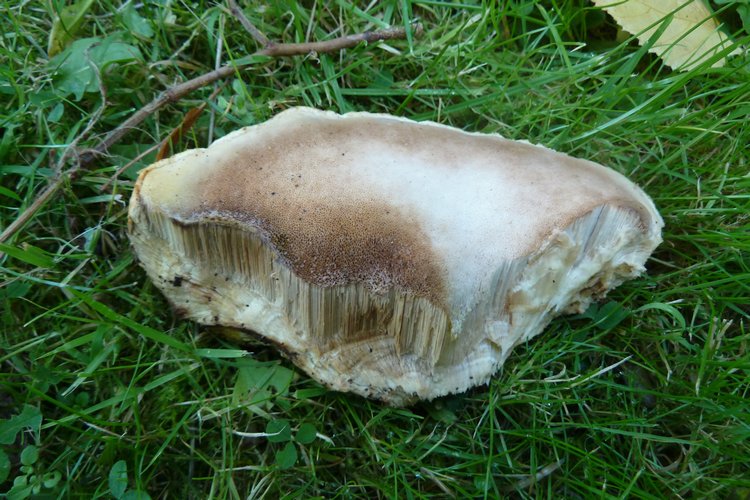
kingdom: Fungi
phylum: Basidiomycota
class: Agaricomycetes
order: Polyporales
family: Meruliaceae
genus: Pappia
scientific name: Pappia fissilis
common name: sej fedtporesvamp
